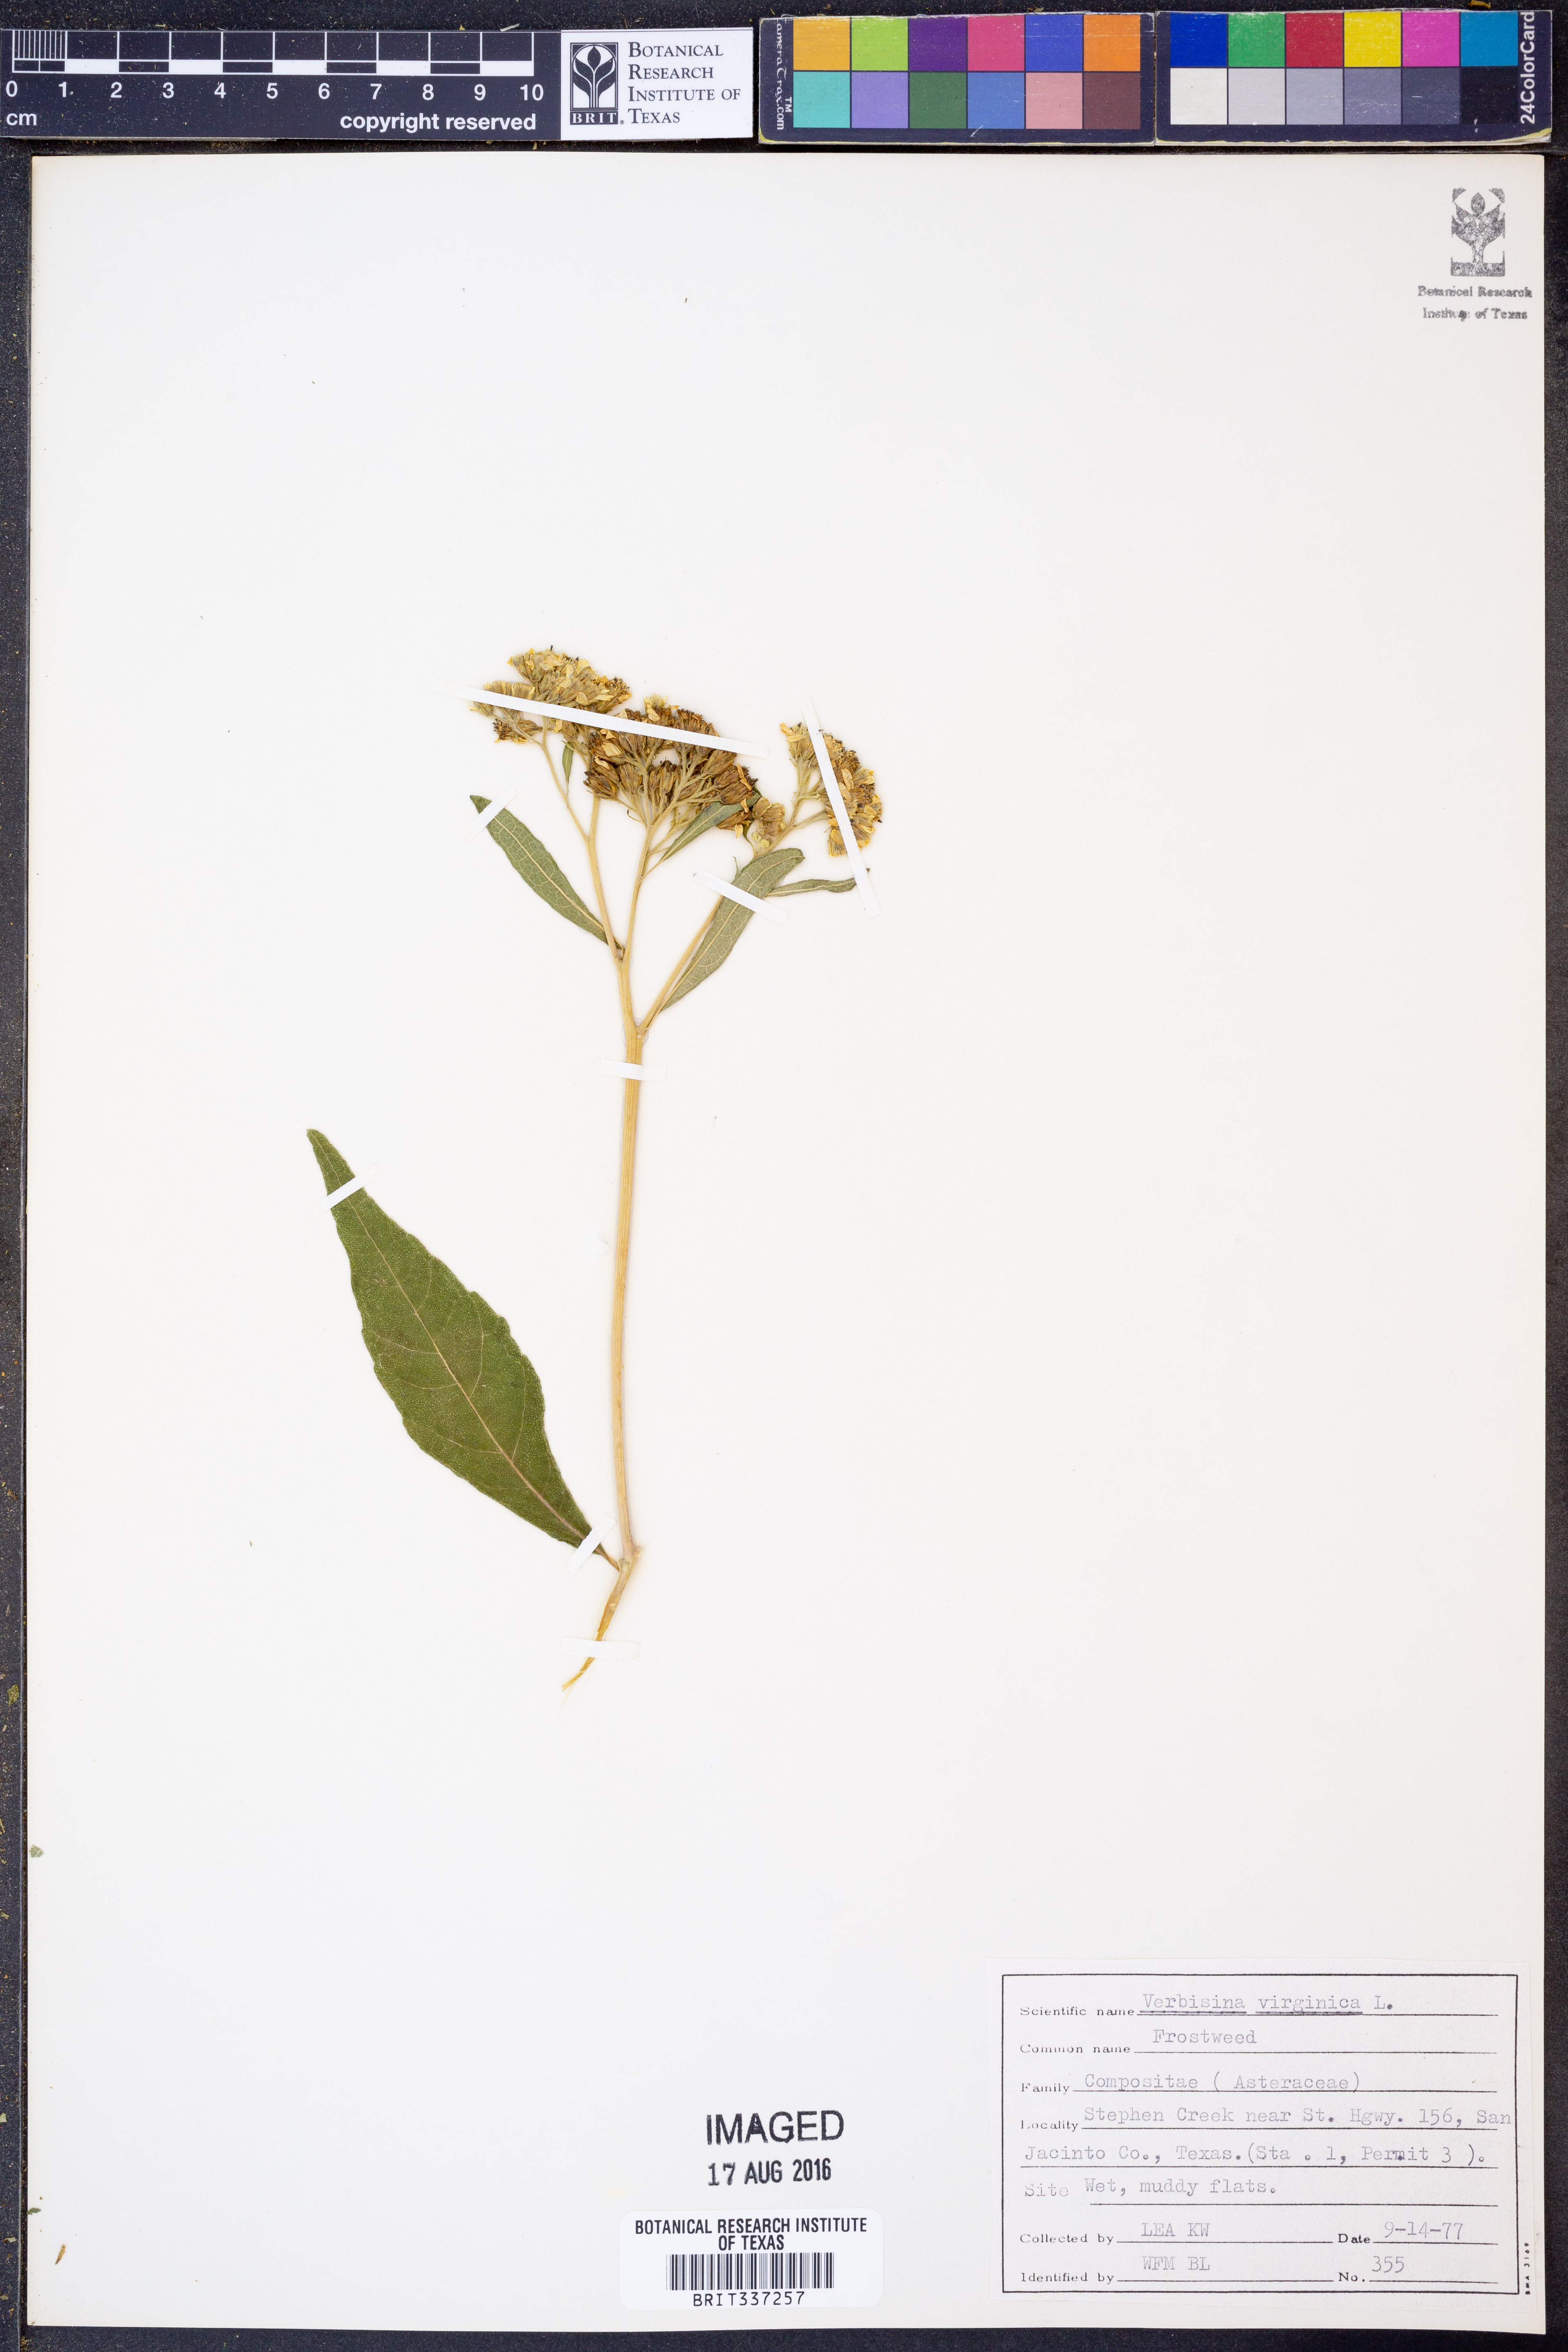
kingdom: Plantae
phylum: Tracheophyta
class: Magnoliopsida
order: Asterales
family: Asteraceae
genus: Verbesina
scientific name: Verbesina virginica
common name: Frostweed
